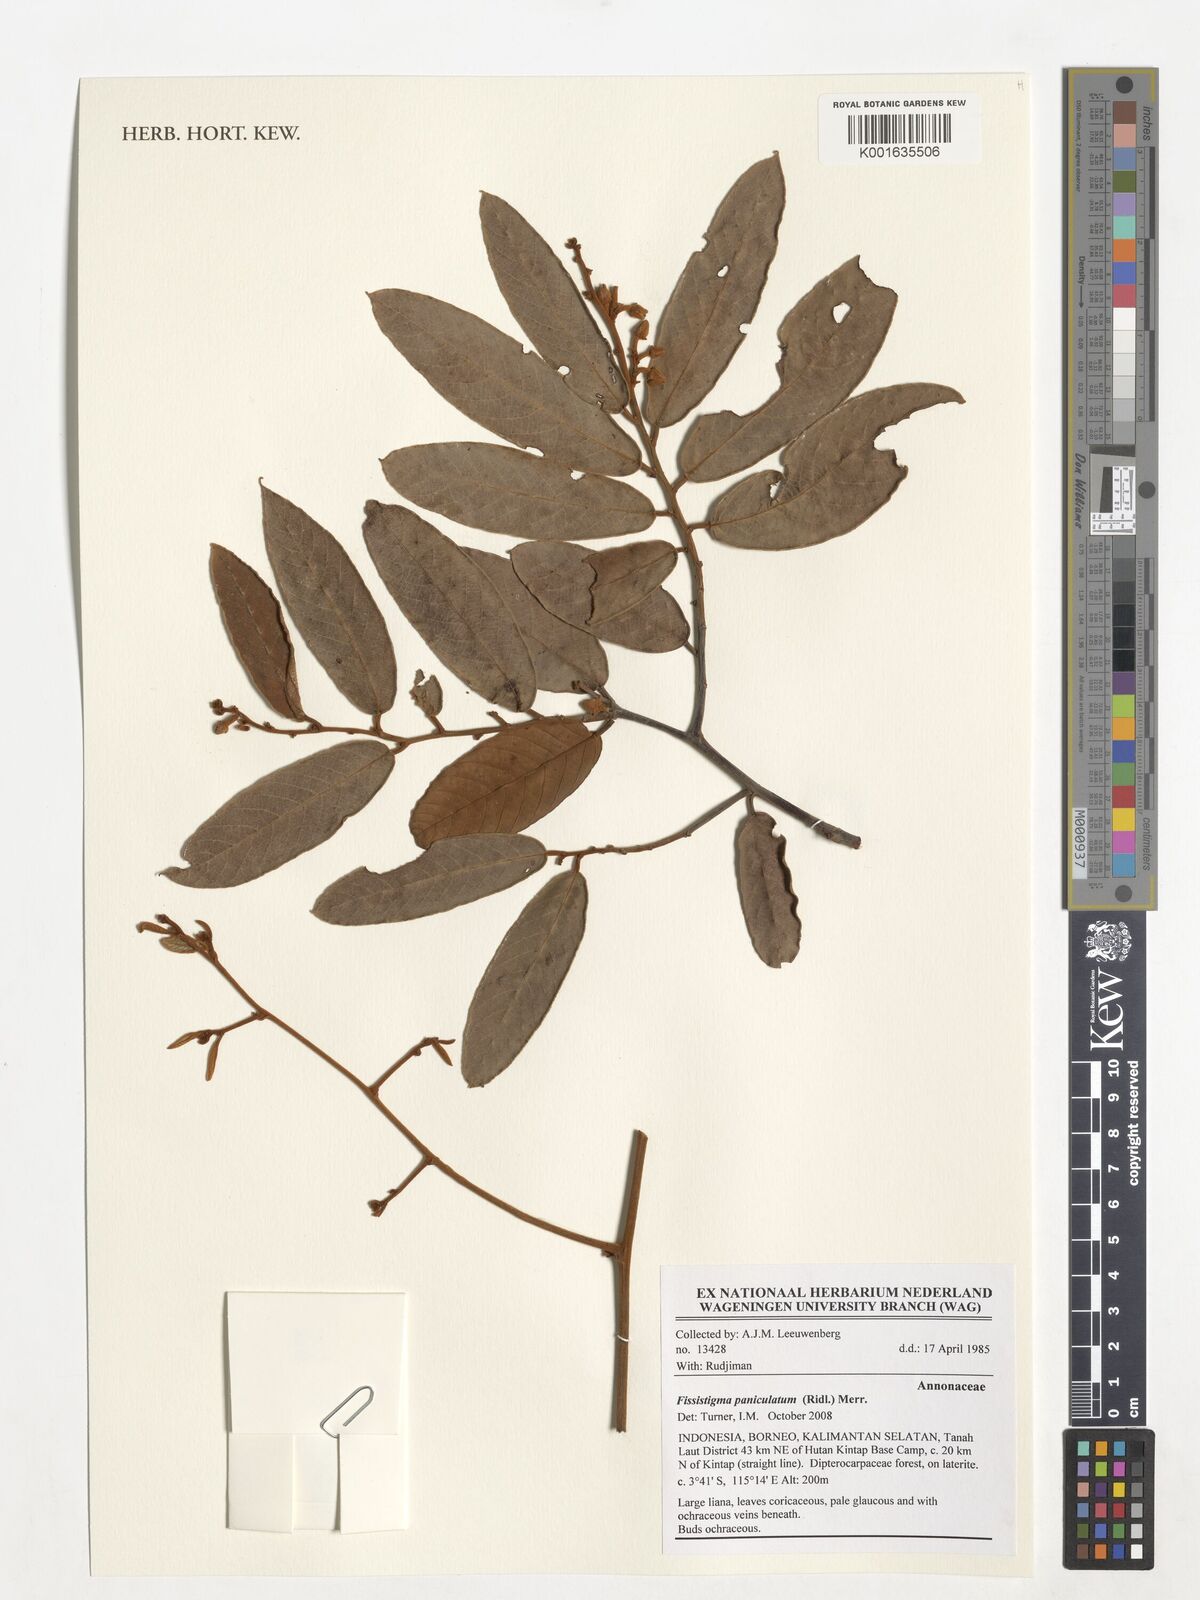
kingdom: Plantae
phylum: Tracheophyta
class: Magnoliopsida
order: Magnoliales
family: Annonaceae
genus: Fissistigma
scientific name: Fissistigma paniculatum
